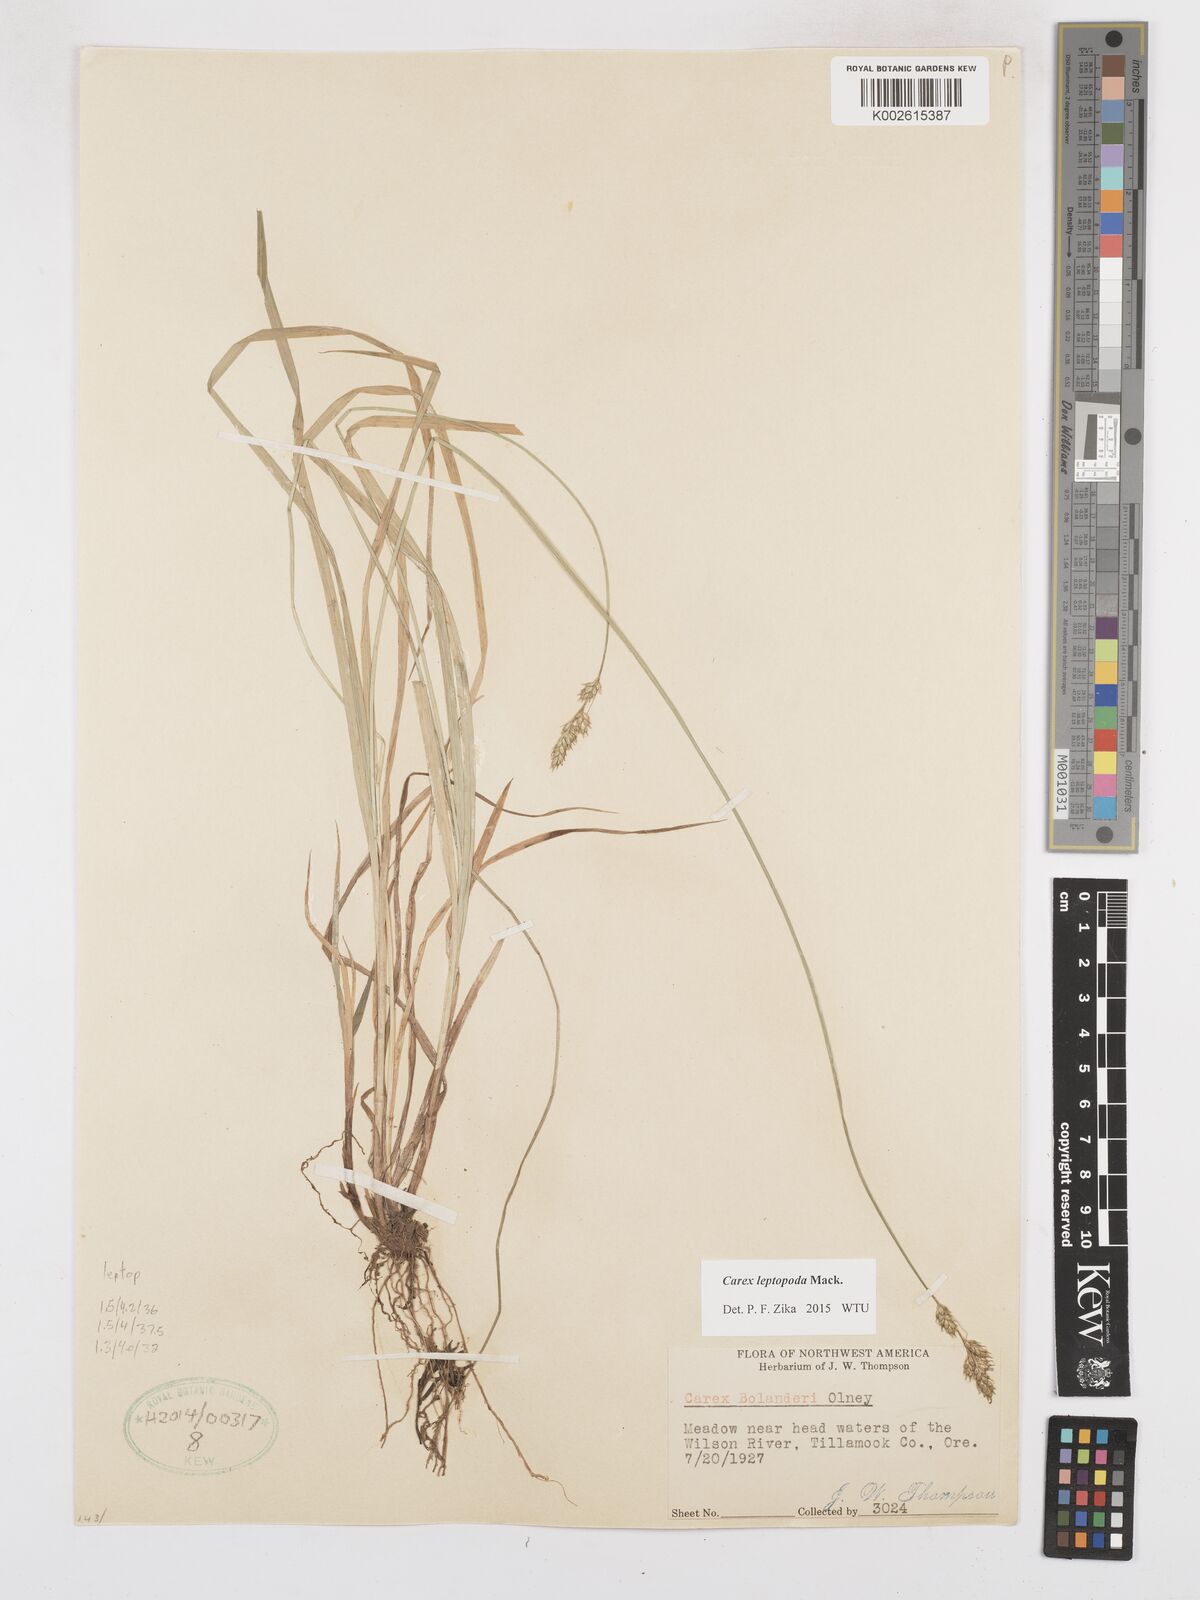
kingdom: Plantae
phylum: Tracheophyta
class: Liliopsida
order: Poales
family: Cyperaceae
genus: Carex
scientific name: Carex leptopoda
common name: Short-scale sedge
